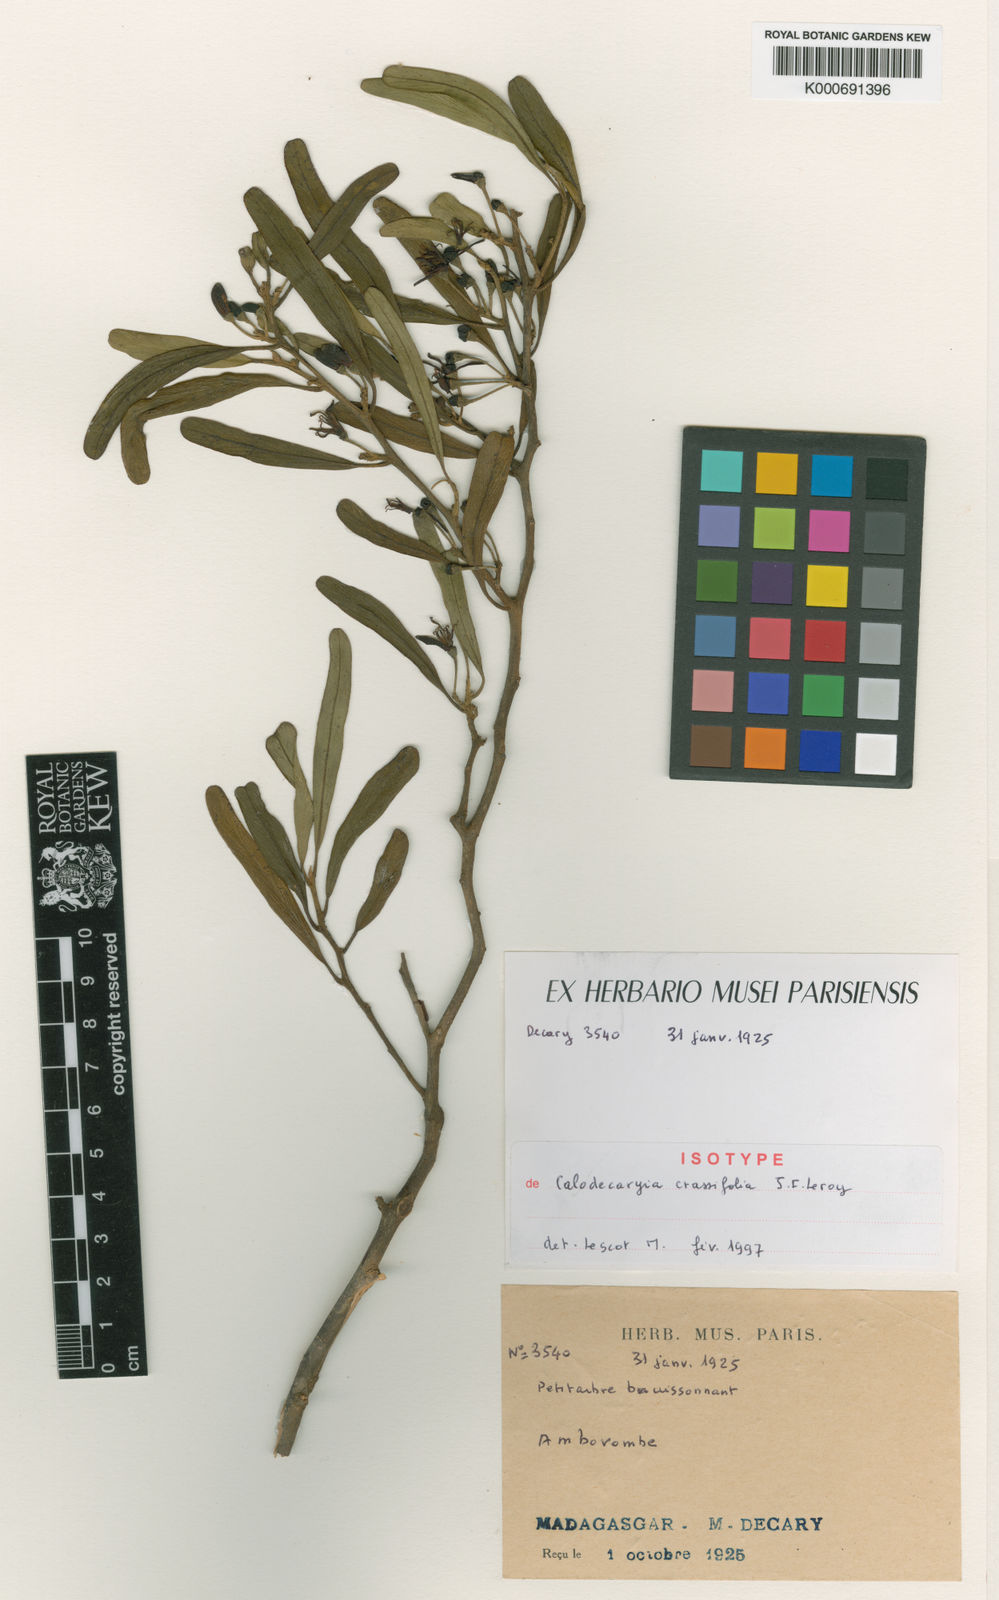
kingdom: Plantae
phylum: Tracheophyta
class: Magnoliopsida
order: Sapindales
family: Meliaceae
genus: Calodecaryia
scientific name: Calodecaryia crassifolia
